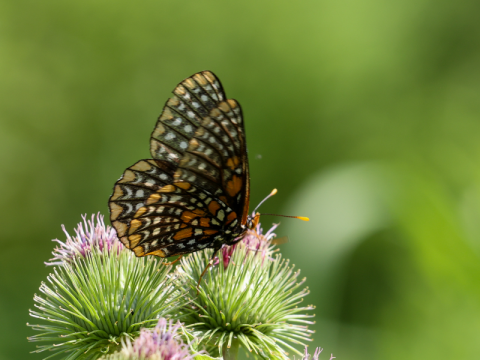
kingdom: Animalia
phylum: Arthropoda
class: Insecta
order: Lepidoptera
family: Nymphalidae
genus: Euphydryas
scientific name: Euphydryas phaeton
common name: Baltimore Checkerspot
